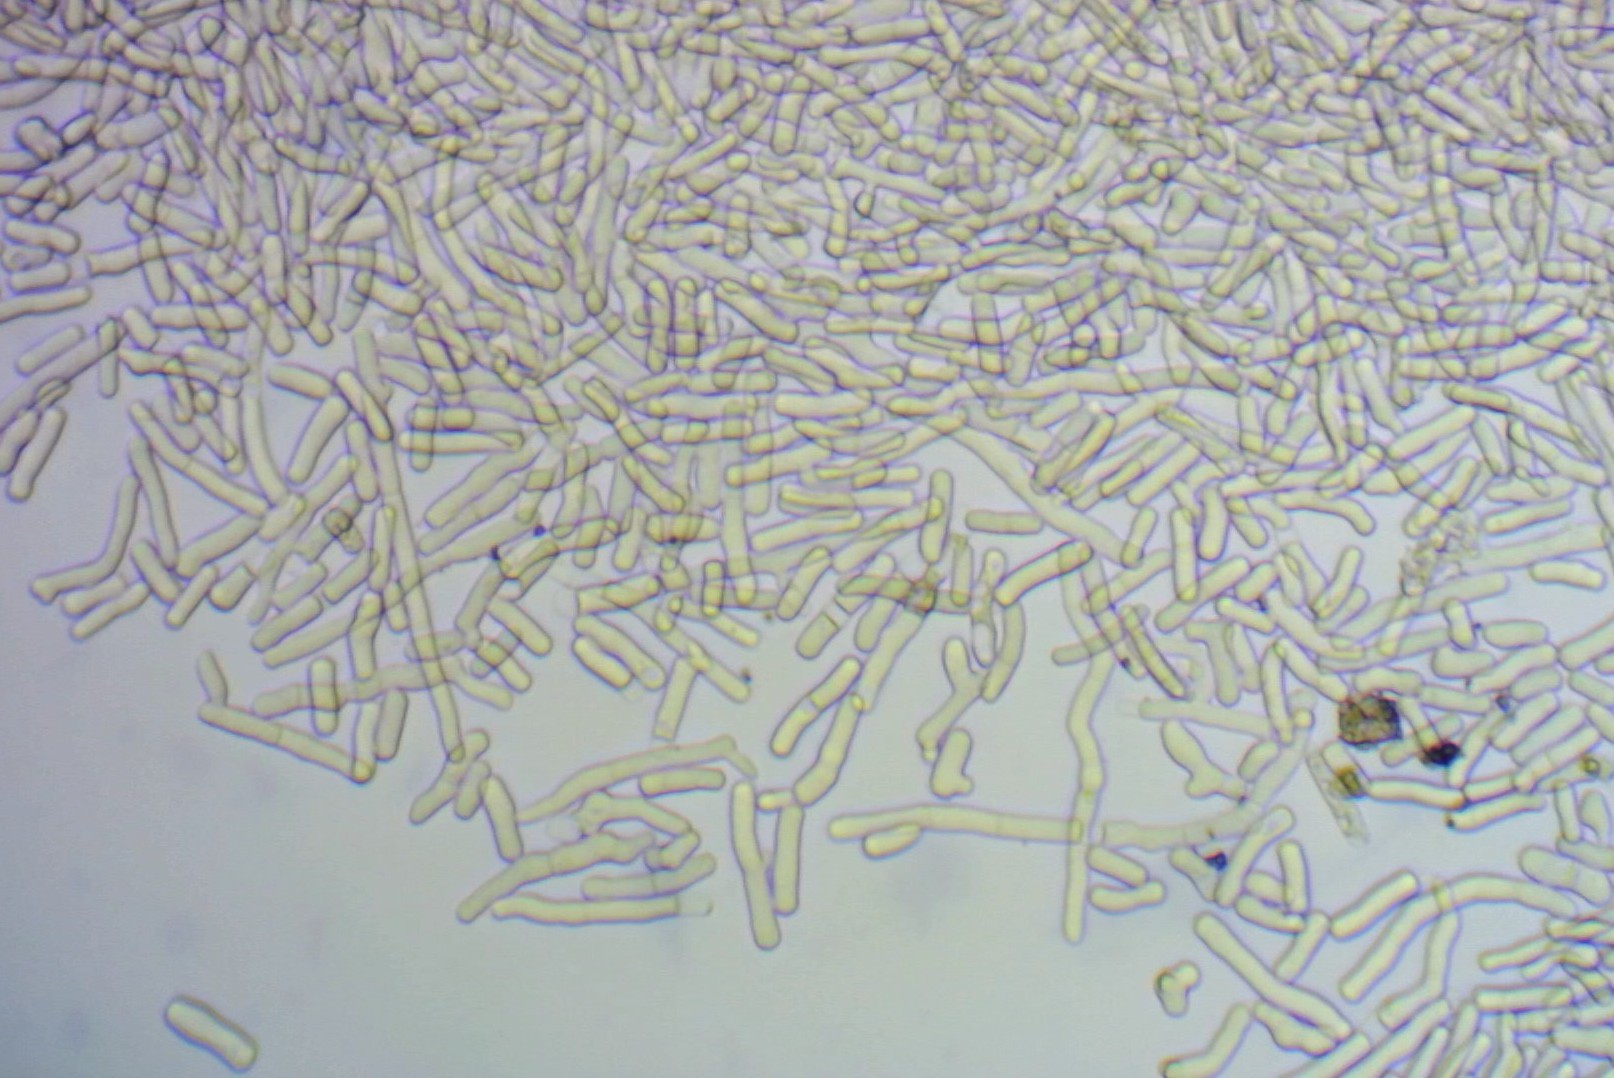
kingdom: Fungi
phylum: Basidiomycota
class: Agaricomycetes
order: Corticiales
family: Corticiaceae
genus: Laetisaria
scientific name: Laetisaria fuciformis
